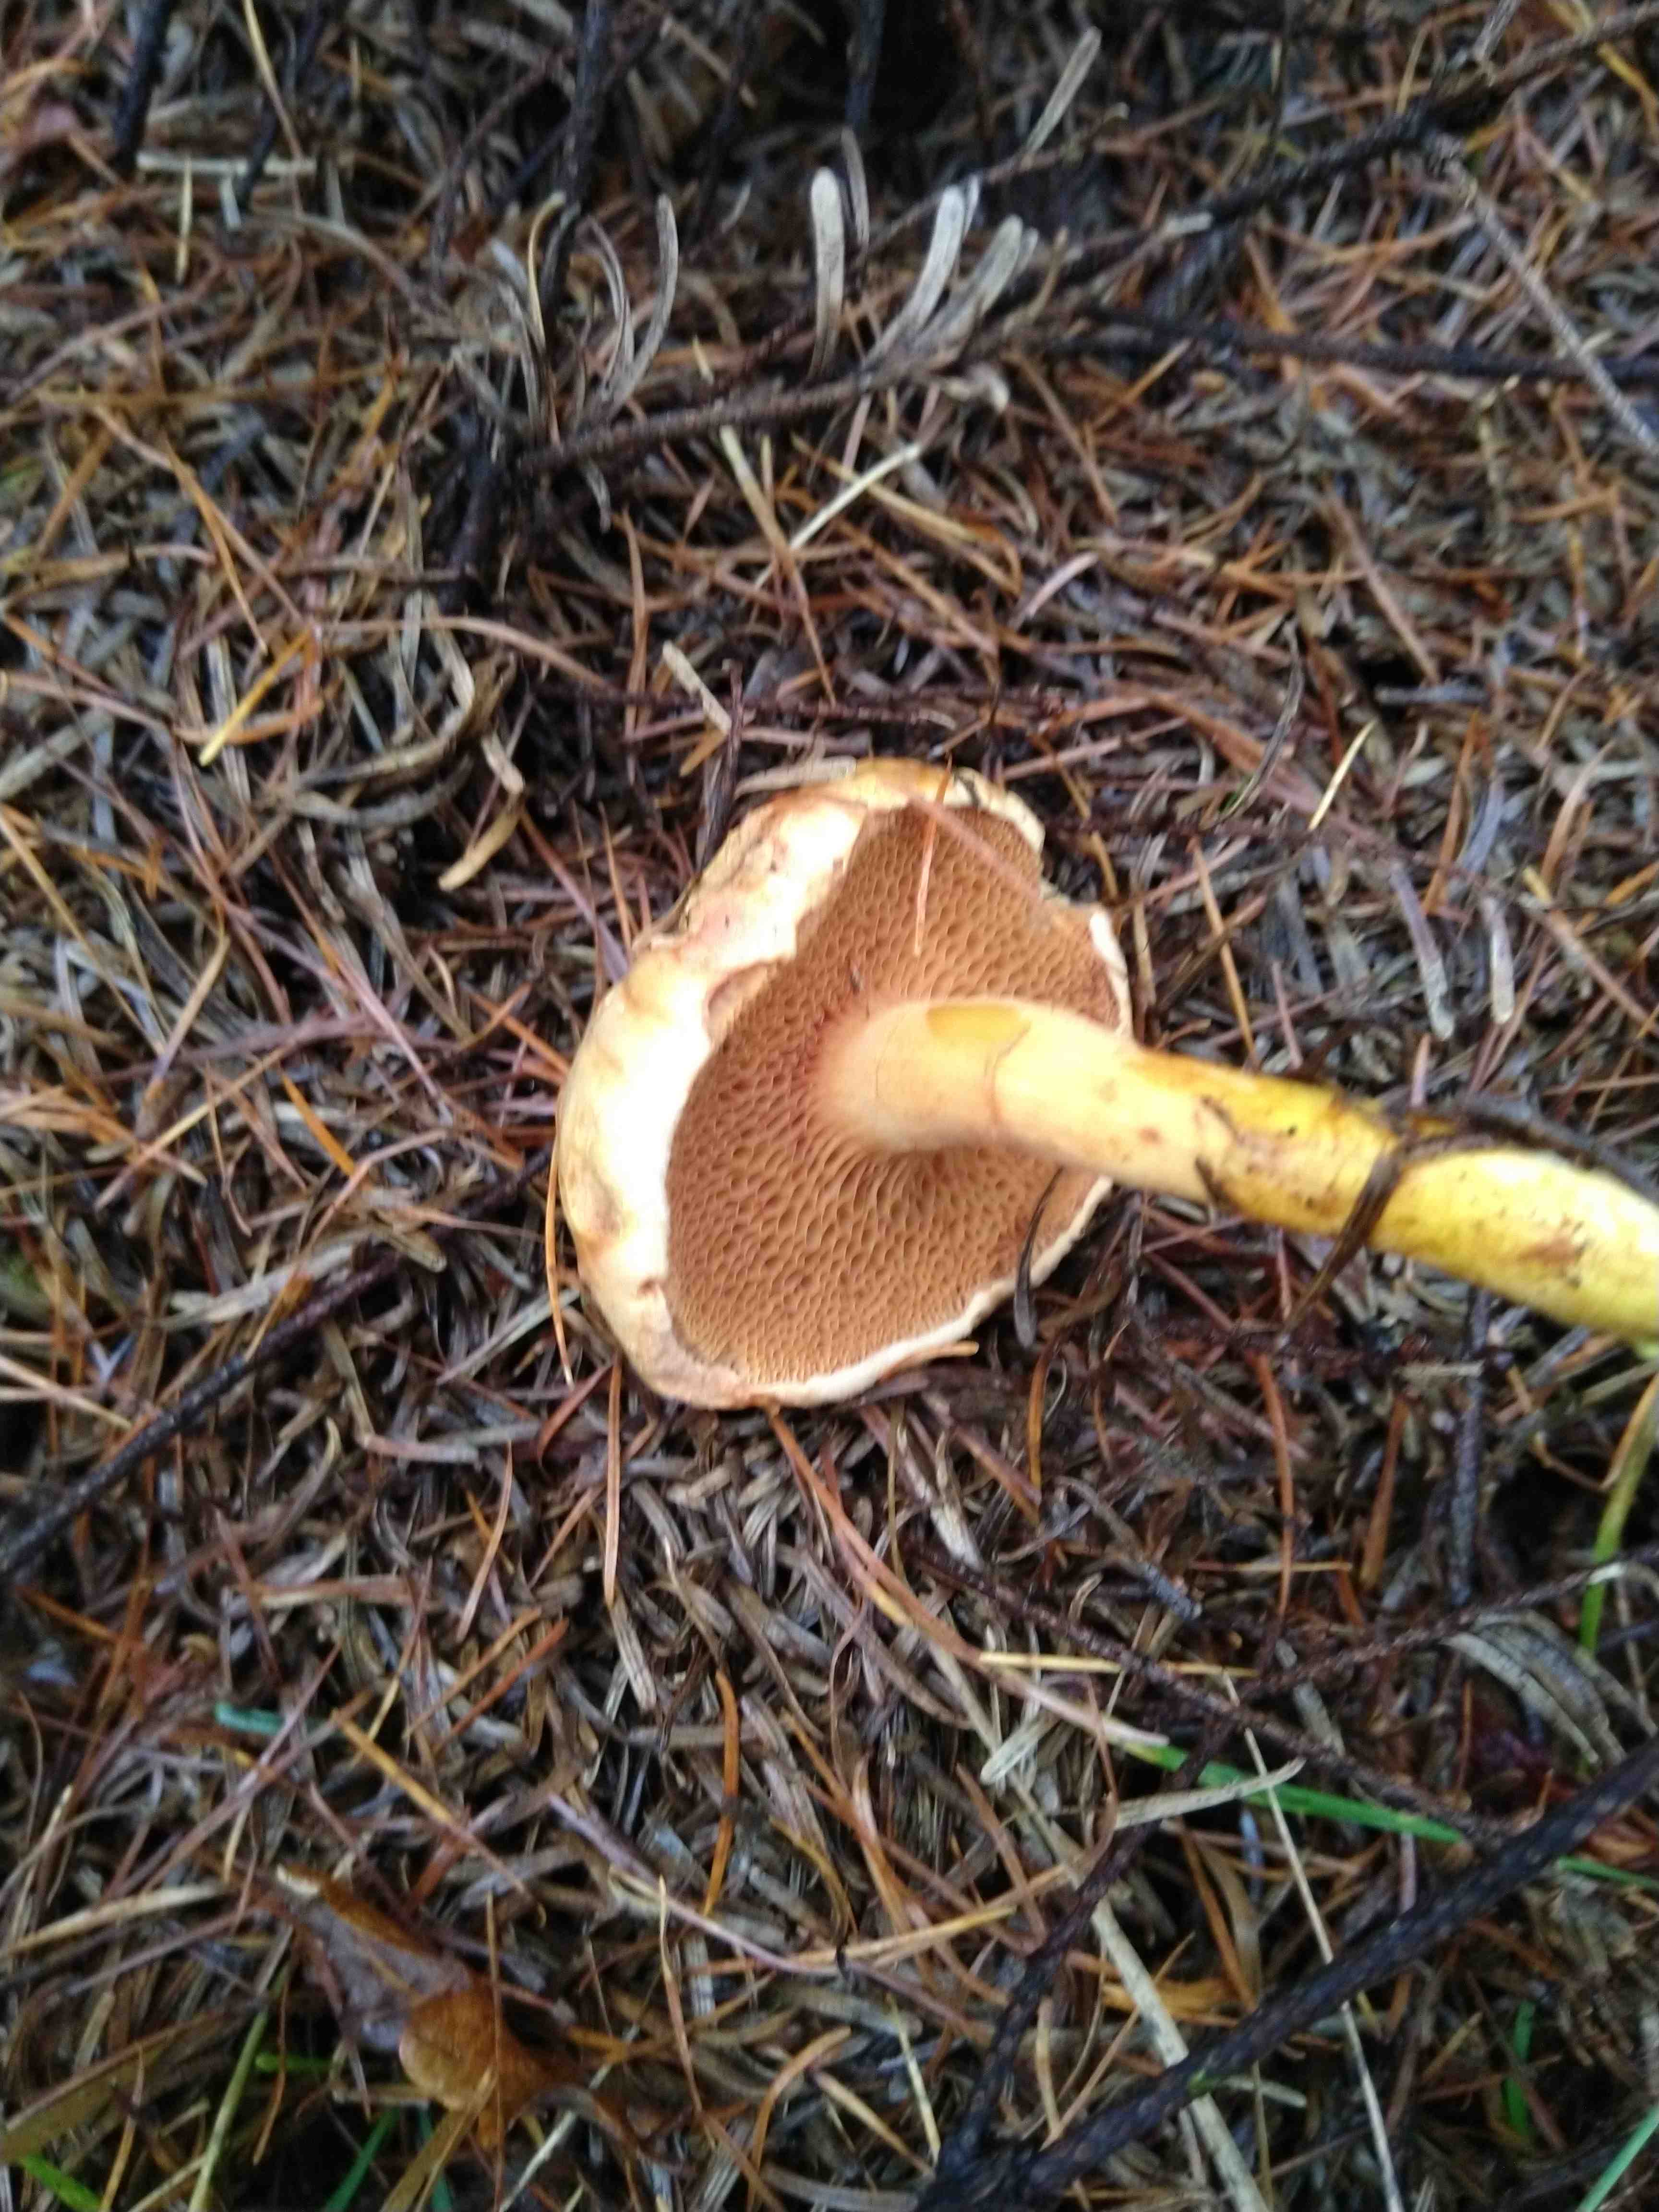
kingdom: Fungi
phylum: Basidiomycota
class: Agaricomycetes
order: Boletales
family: Boletaceae
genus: Chalciporus
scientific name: Chalciporus piperatus
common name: peberrørhat
